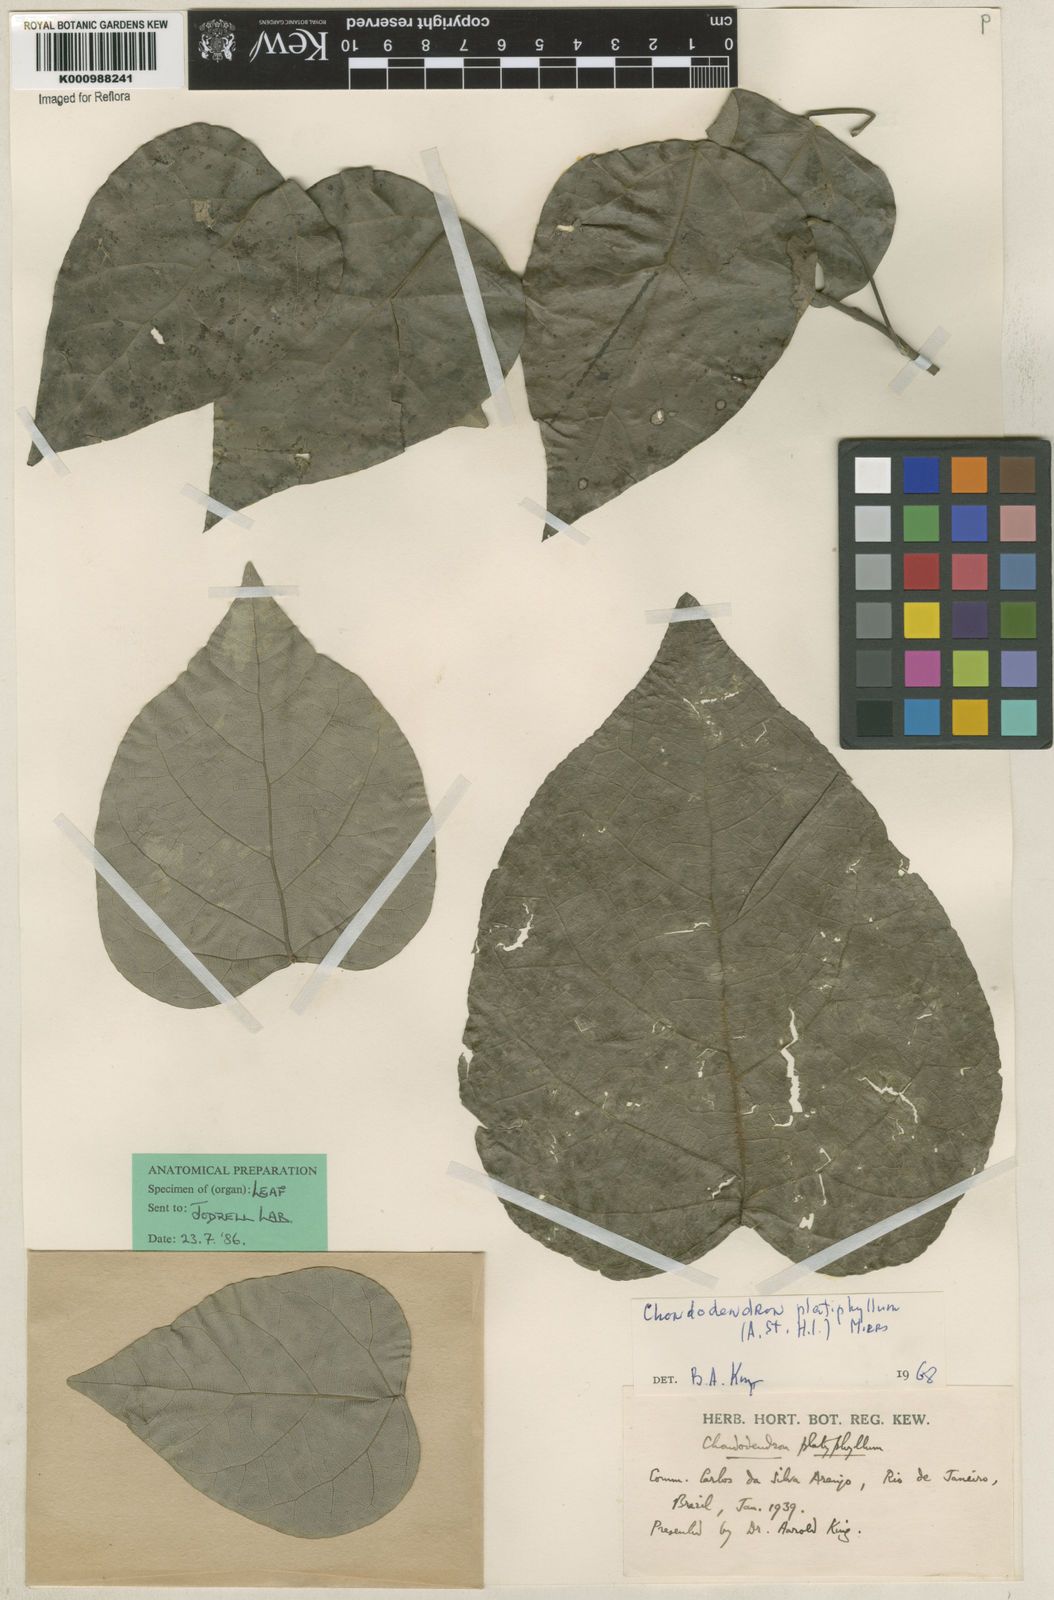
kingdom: Plantae
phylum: Tracheophyta
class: Magnoliopsida
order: Ranunculales
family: Menispermaceae
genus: Chondrodendron
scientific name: Chondrodendron platyphyllum
